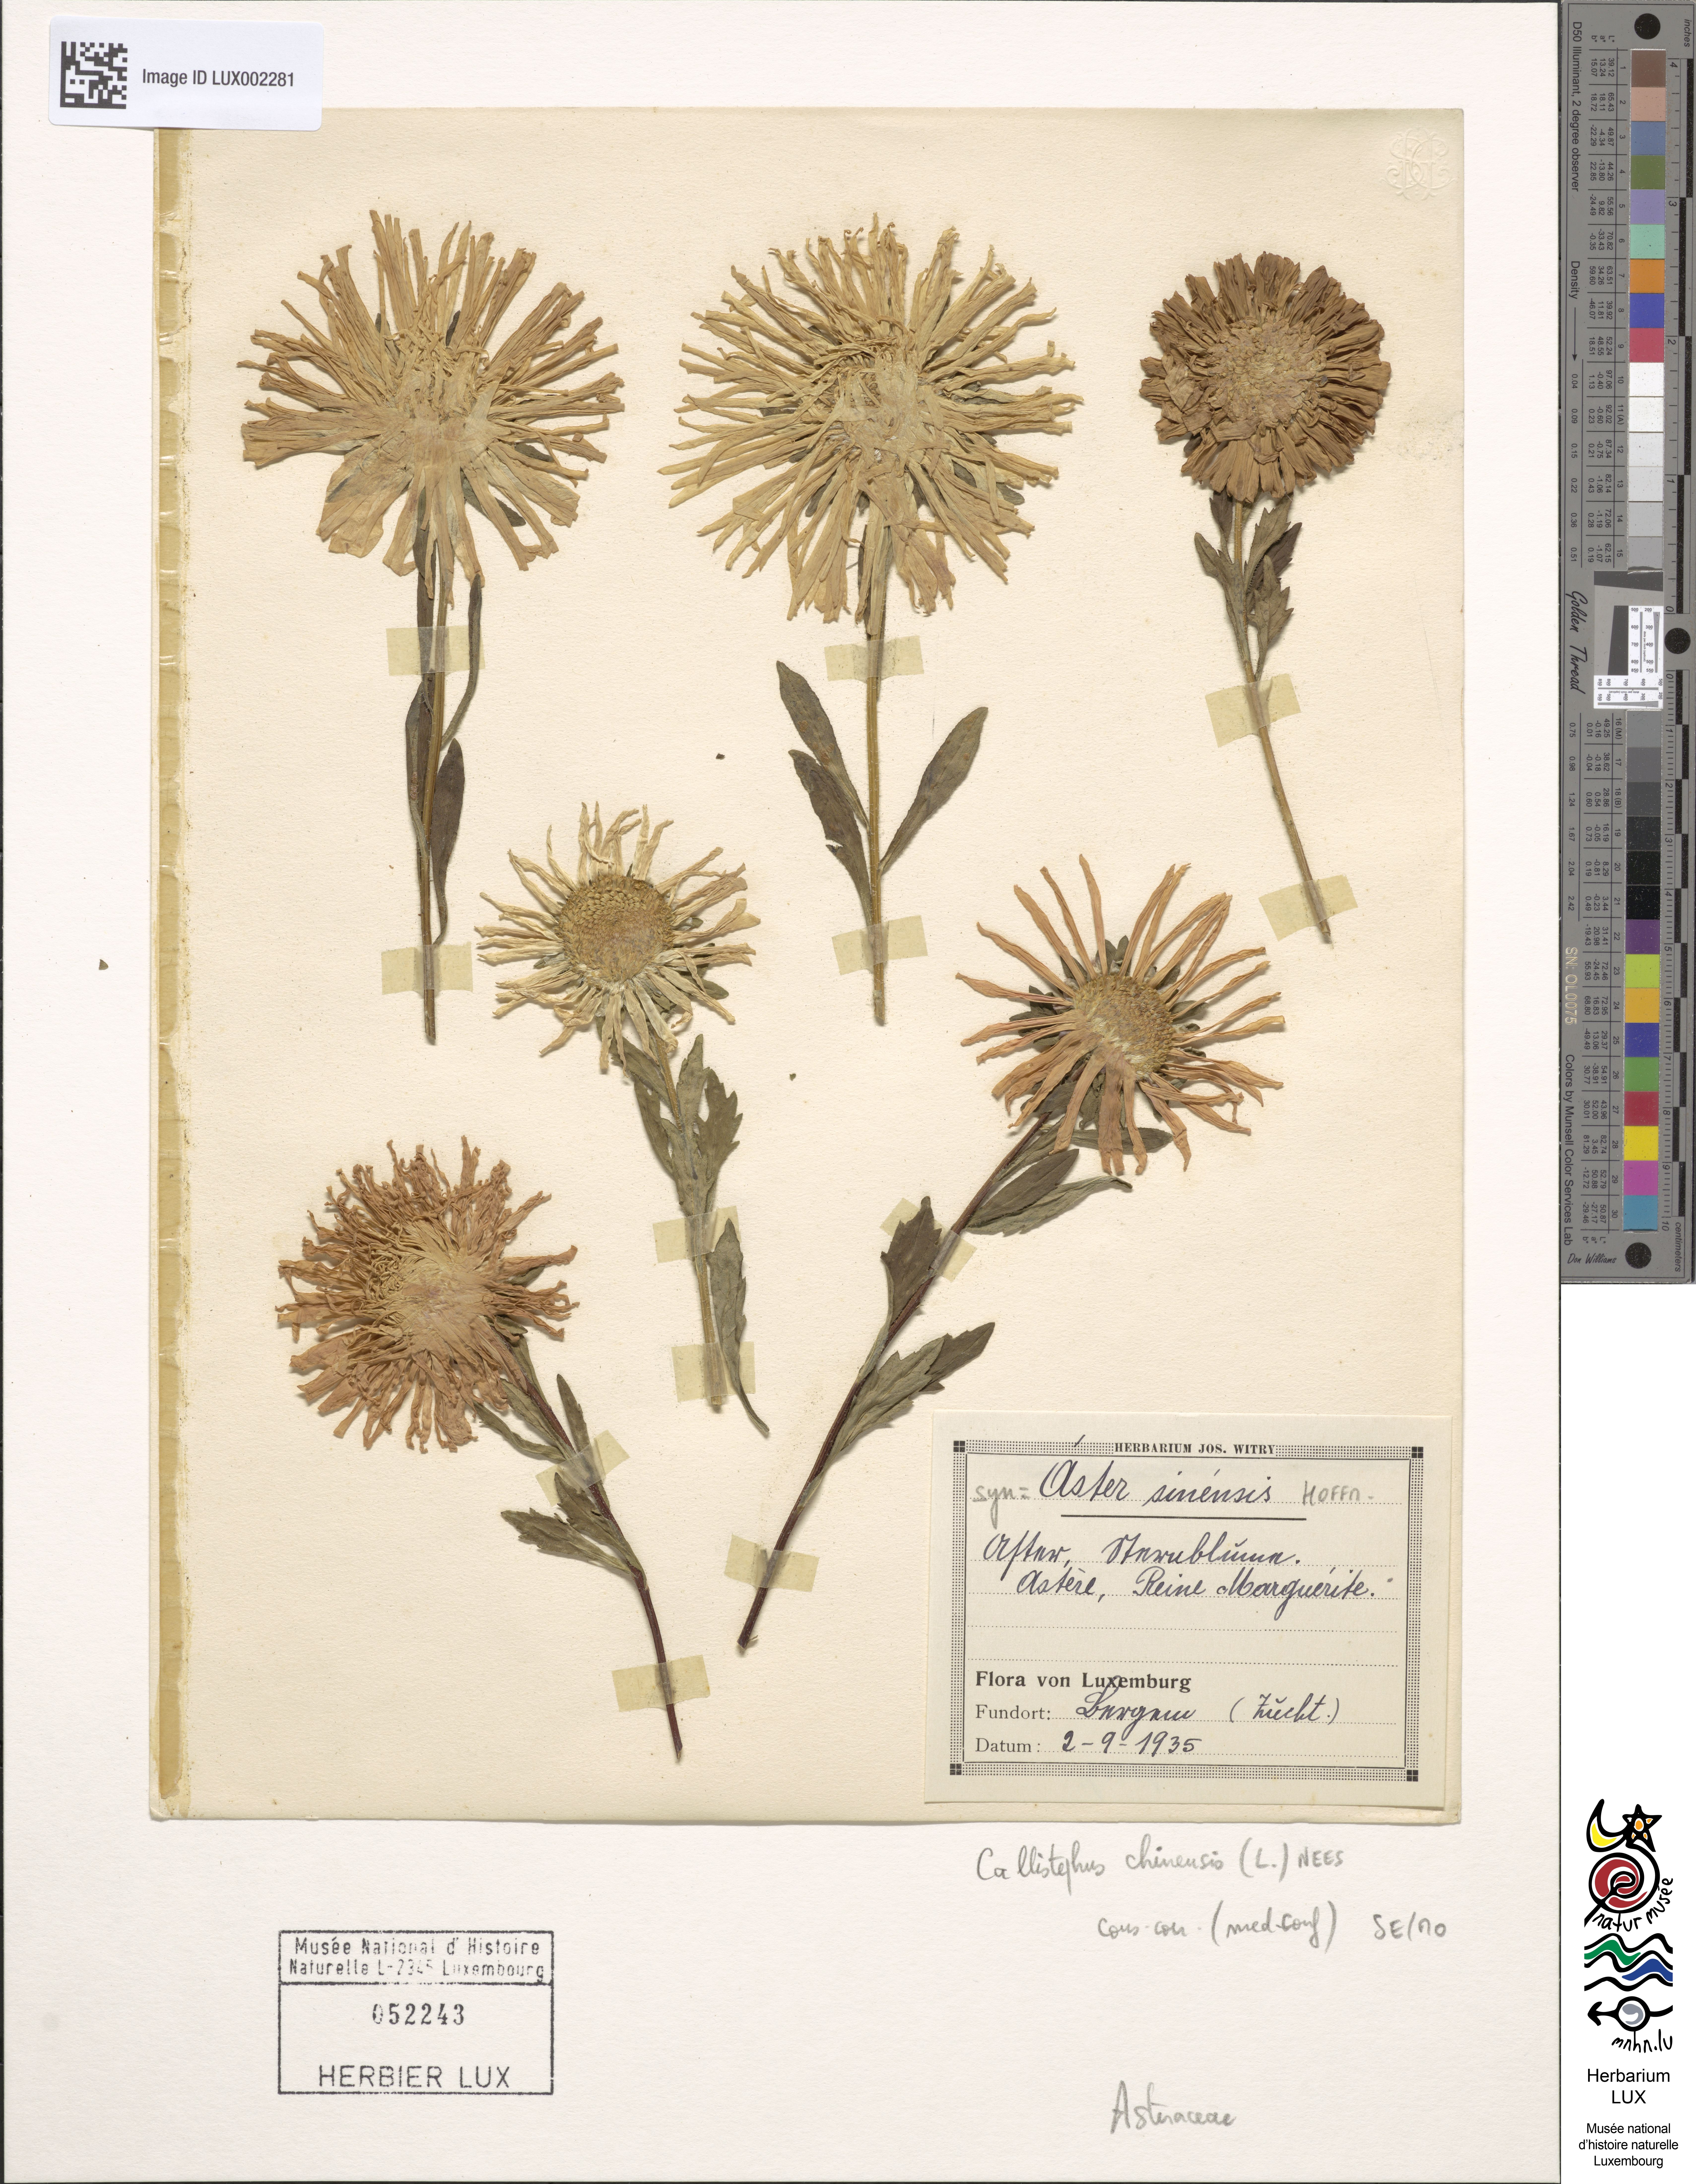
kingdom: Plantae
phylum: Tracheophyta
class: Magnoliopsida
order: Asterales
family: Asteraceae
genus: Callistephus
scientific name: Callistephus chinensis
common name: China aster
